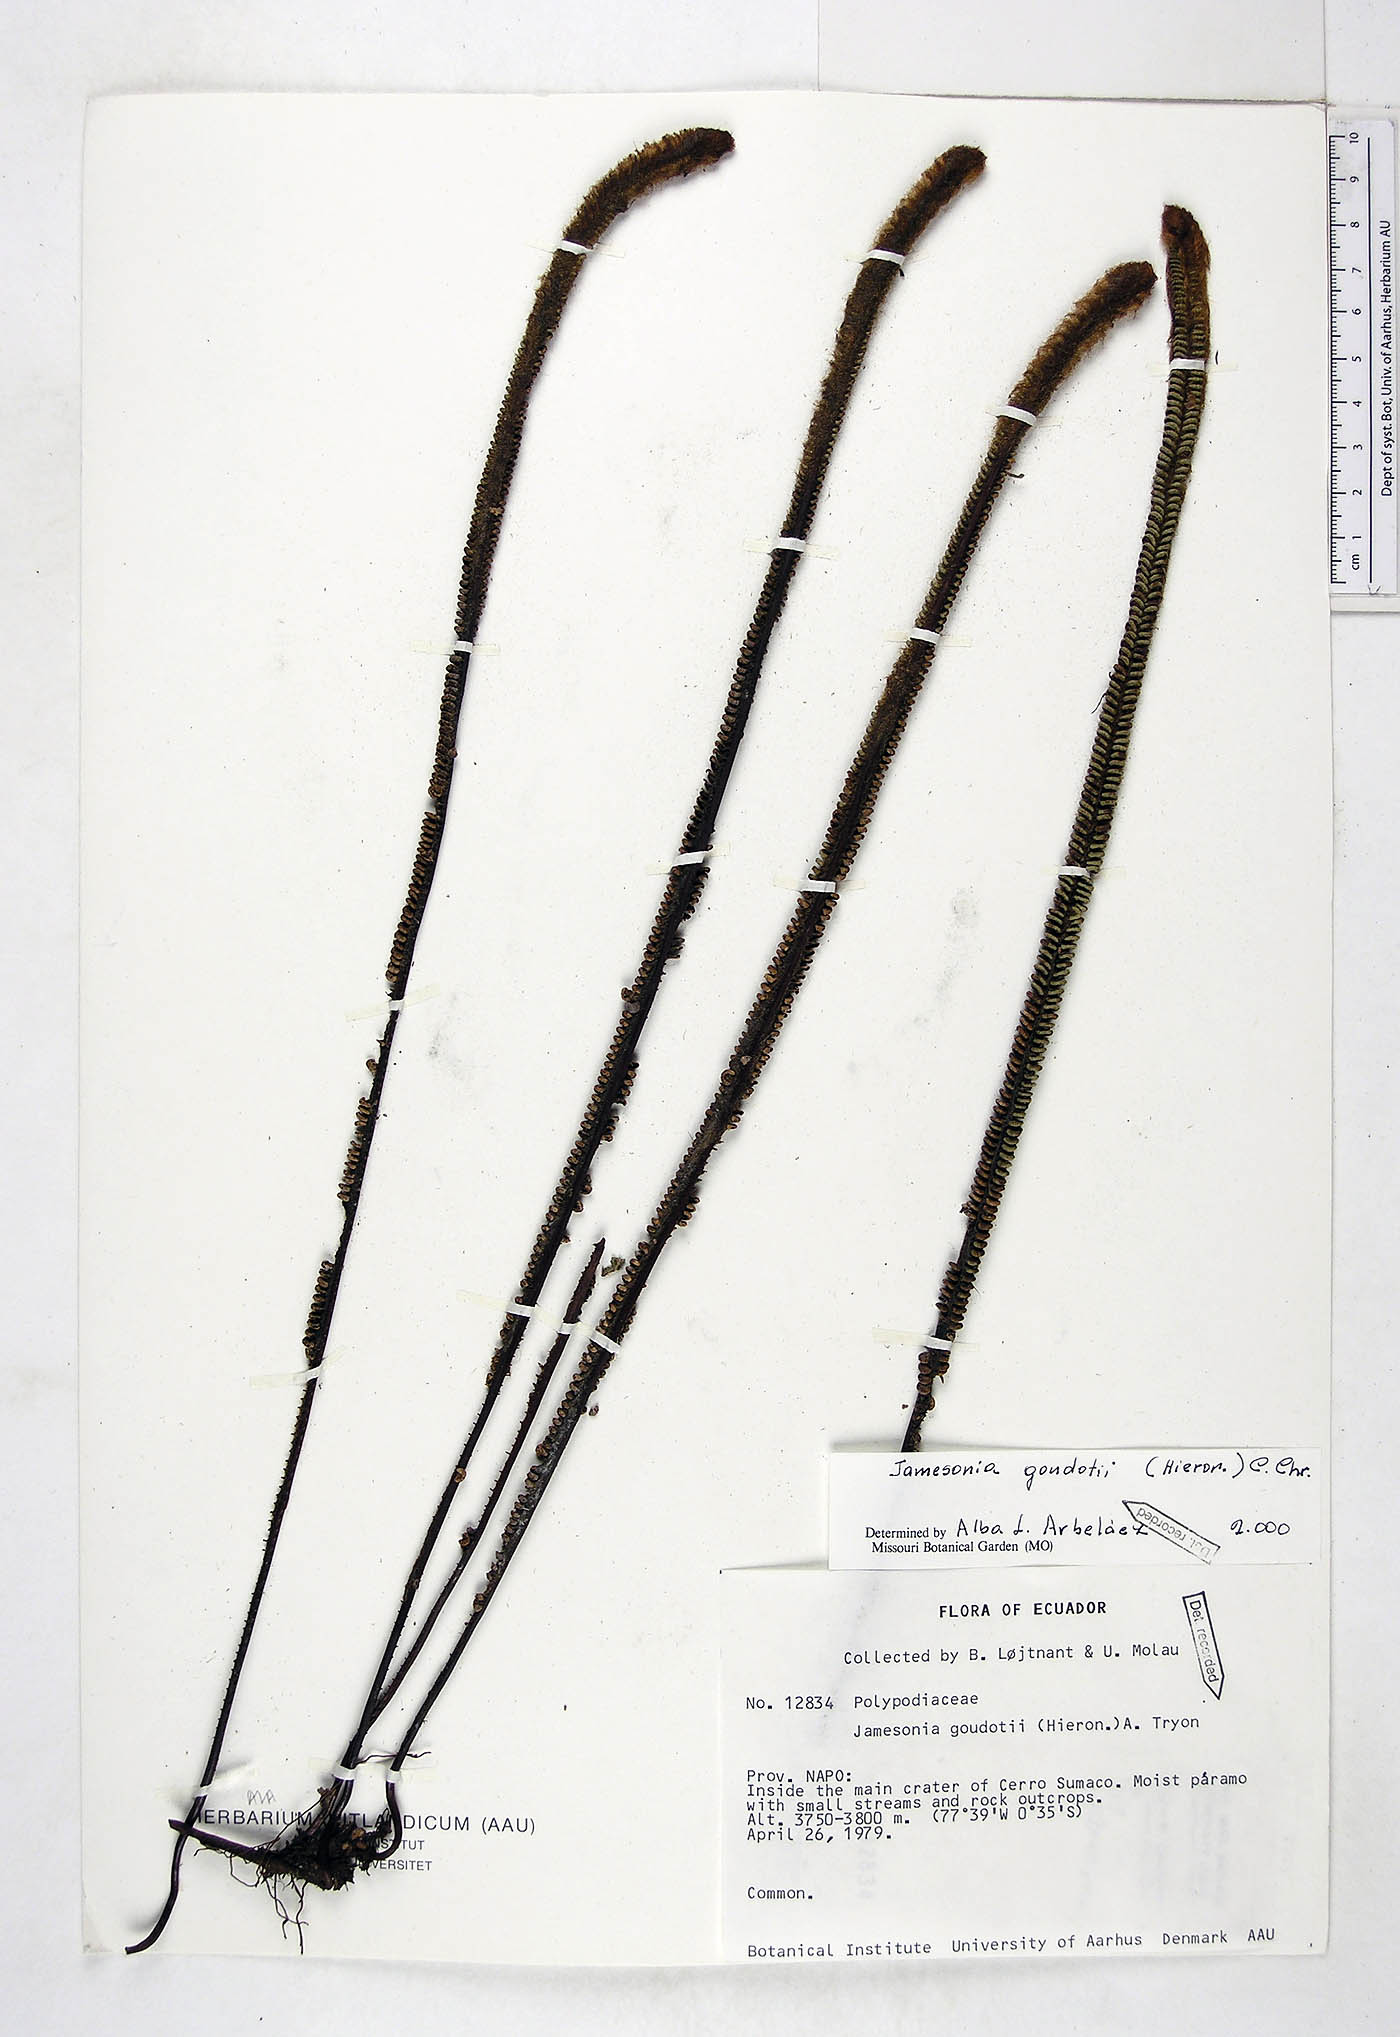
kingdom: Plantae
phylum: Tracheophyta
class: Polypodiopsida
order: Polypodiales
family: Pteridaceae
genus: Jamesonia
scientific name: Jamesonia goudotii
